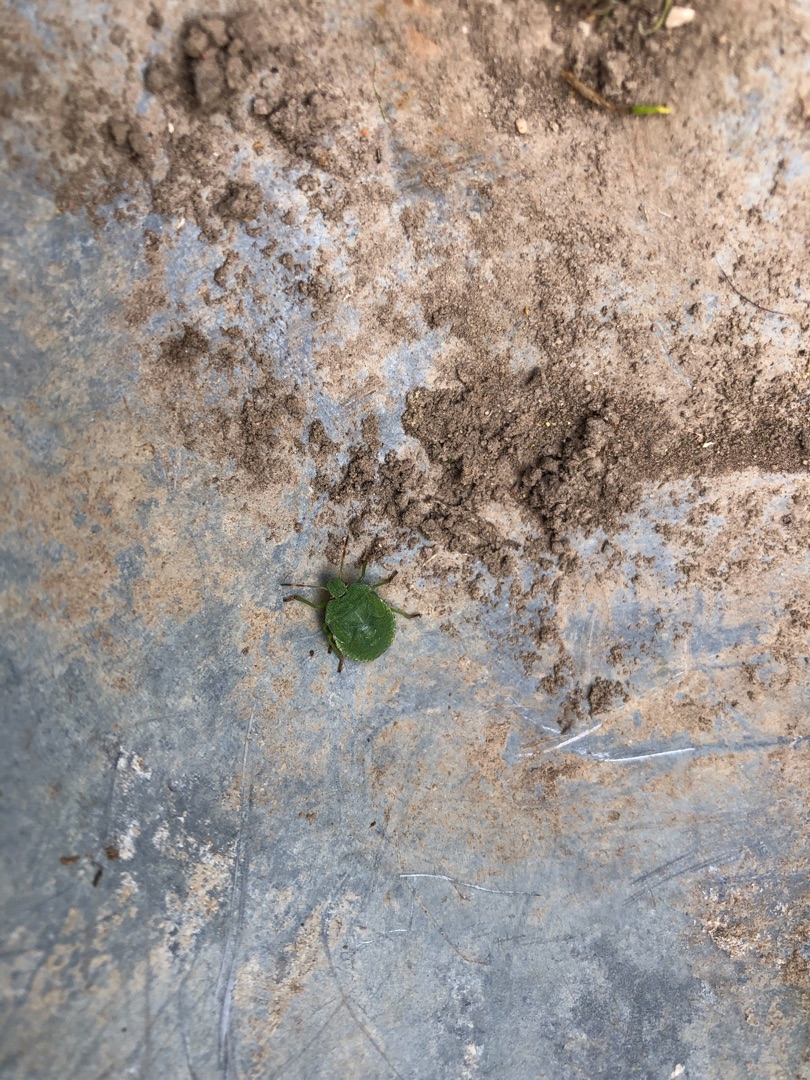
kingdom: Animalia
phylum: Arthropoda
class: Insecta
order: Hemiptera
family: Pentatomidae
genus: Palomena
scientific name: Palomena prasina
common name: Grøn bredtæge
